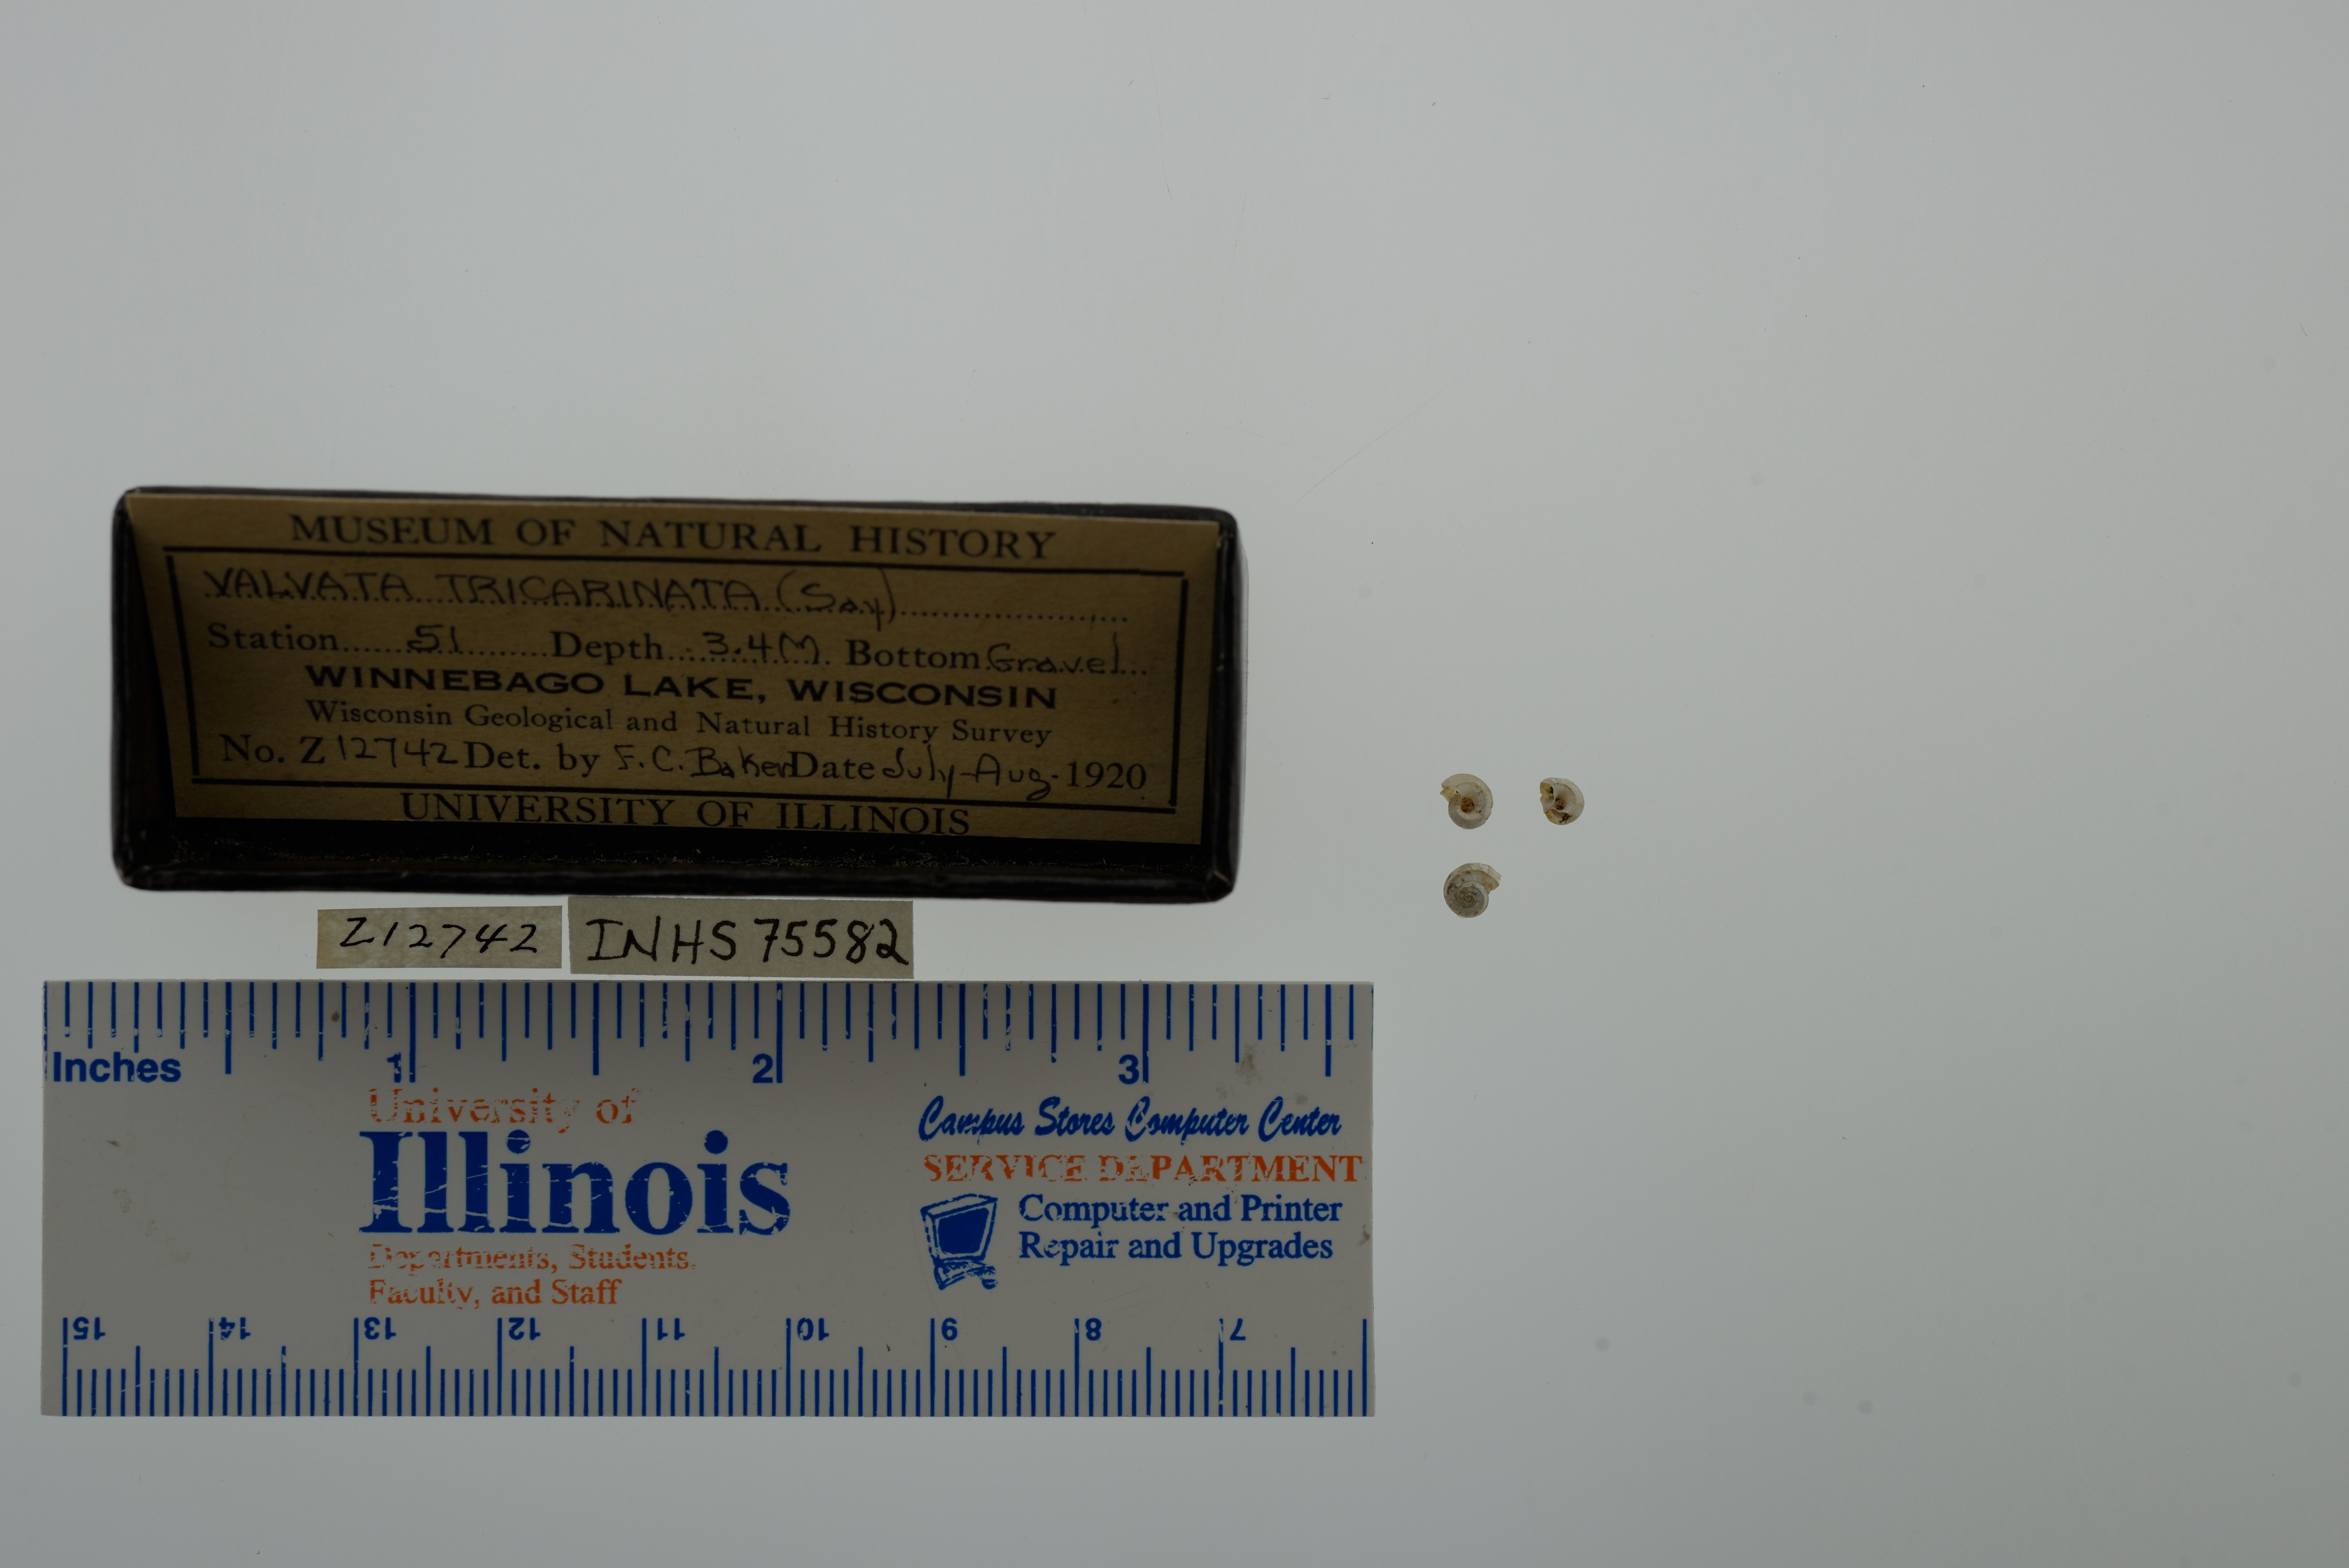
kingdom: Animalia
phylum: Mollusca
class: Gastropoda
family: Valvatidae
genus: Valvata
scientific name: Valvata tricarinata
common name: Three-ridge valvata
